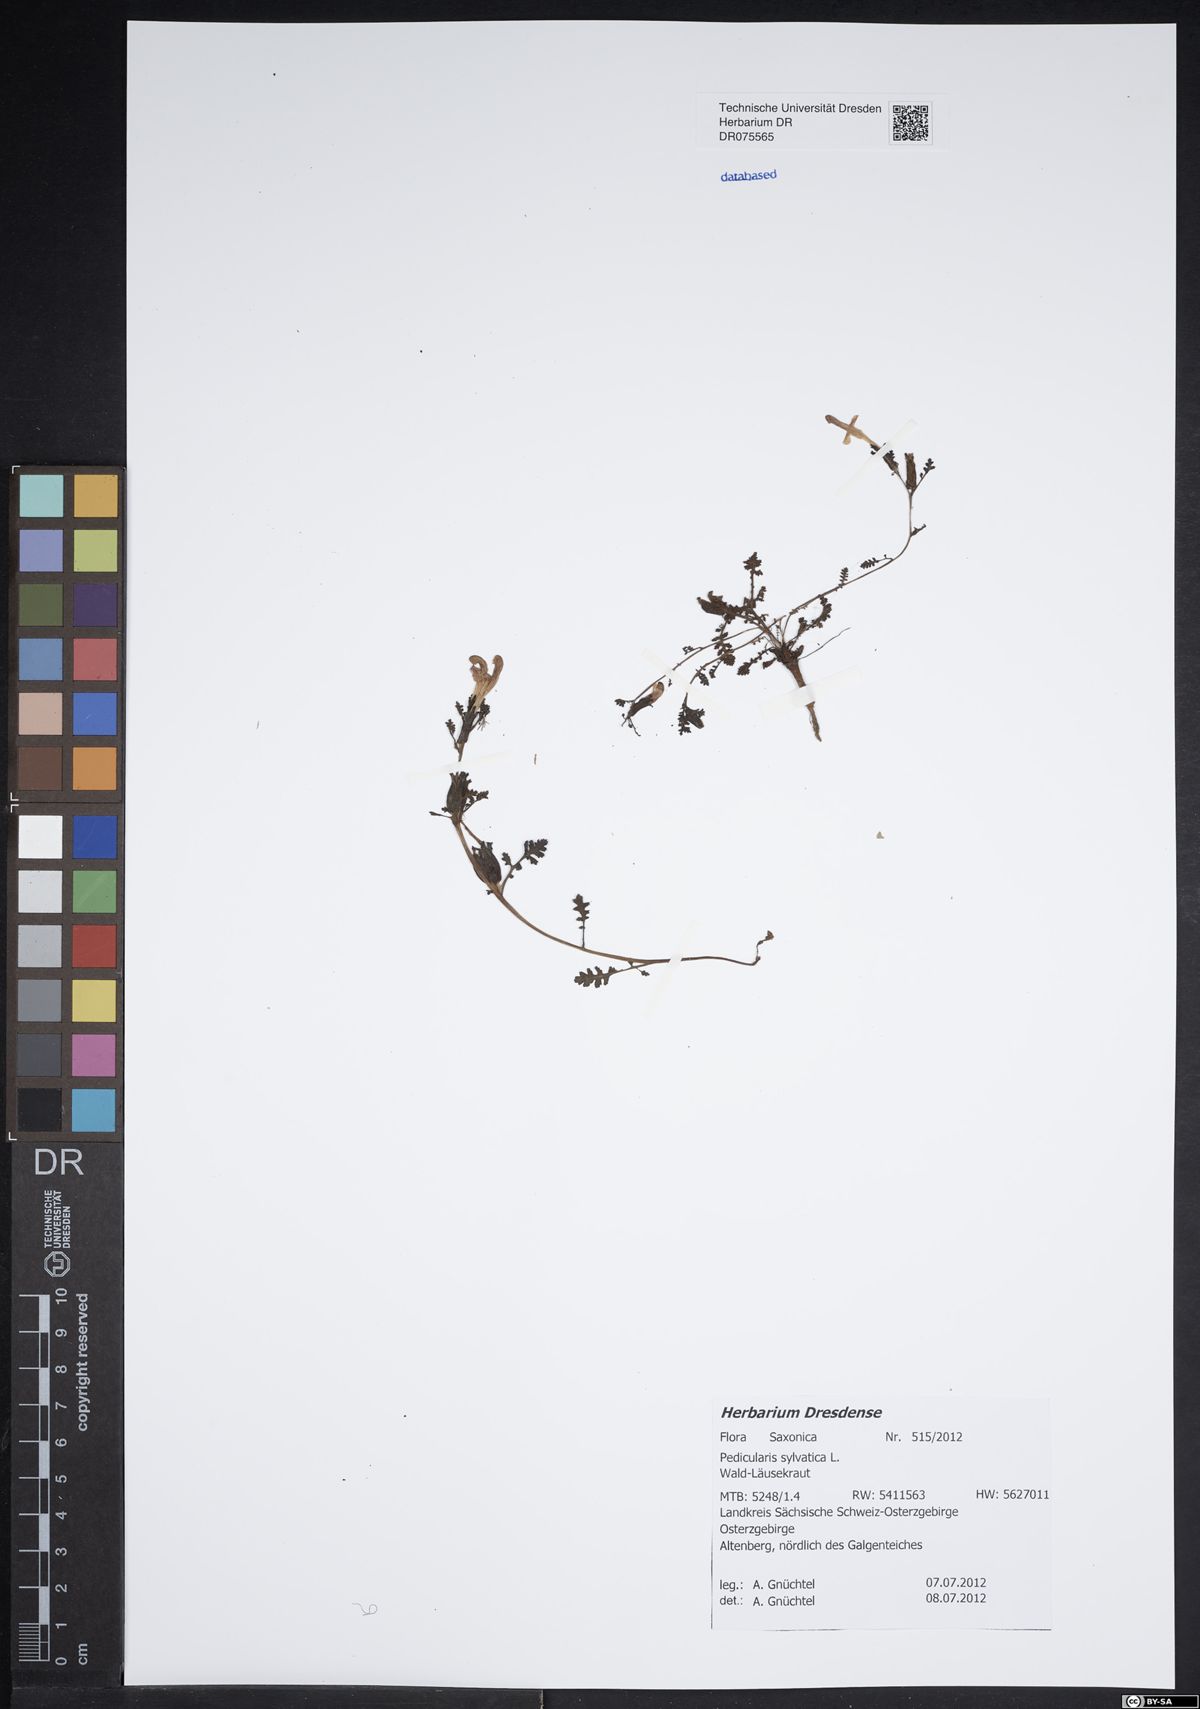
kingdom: Plantae
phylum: Tracheophyta
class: Magnoliopsida
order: Lamiales
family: Orobanchaceae
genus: Pedicularis
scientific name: Pedicularis sylvatica
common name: Lousewort
